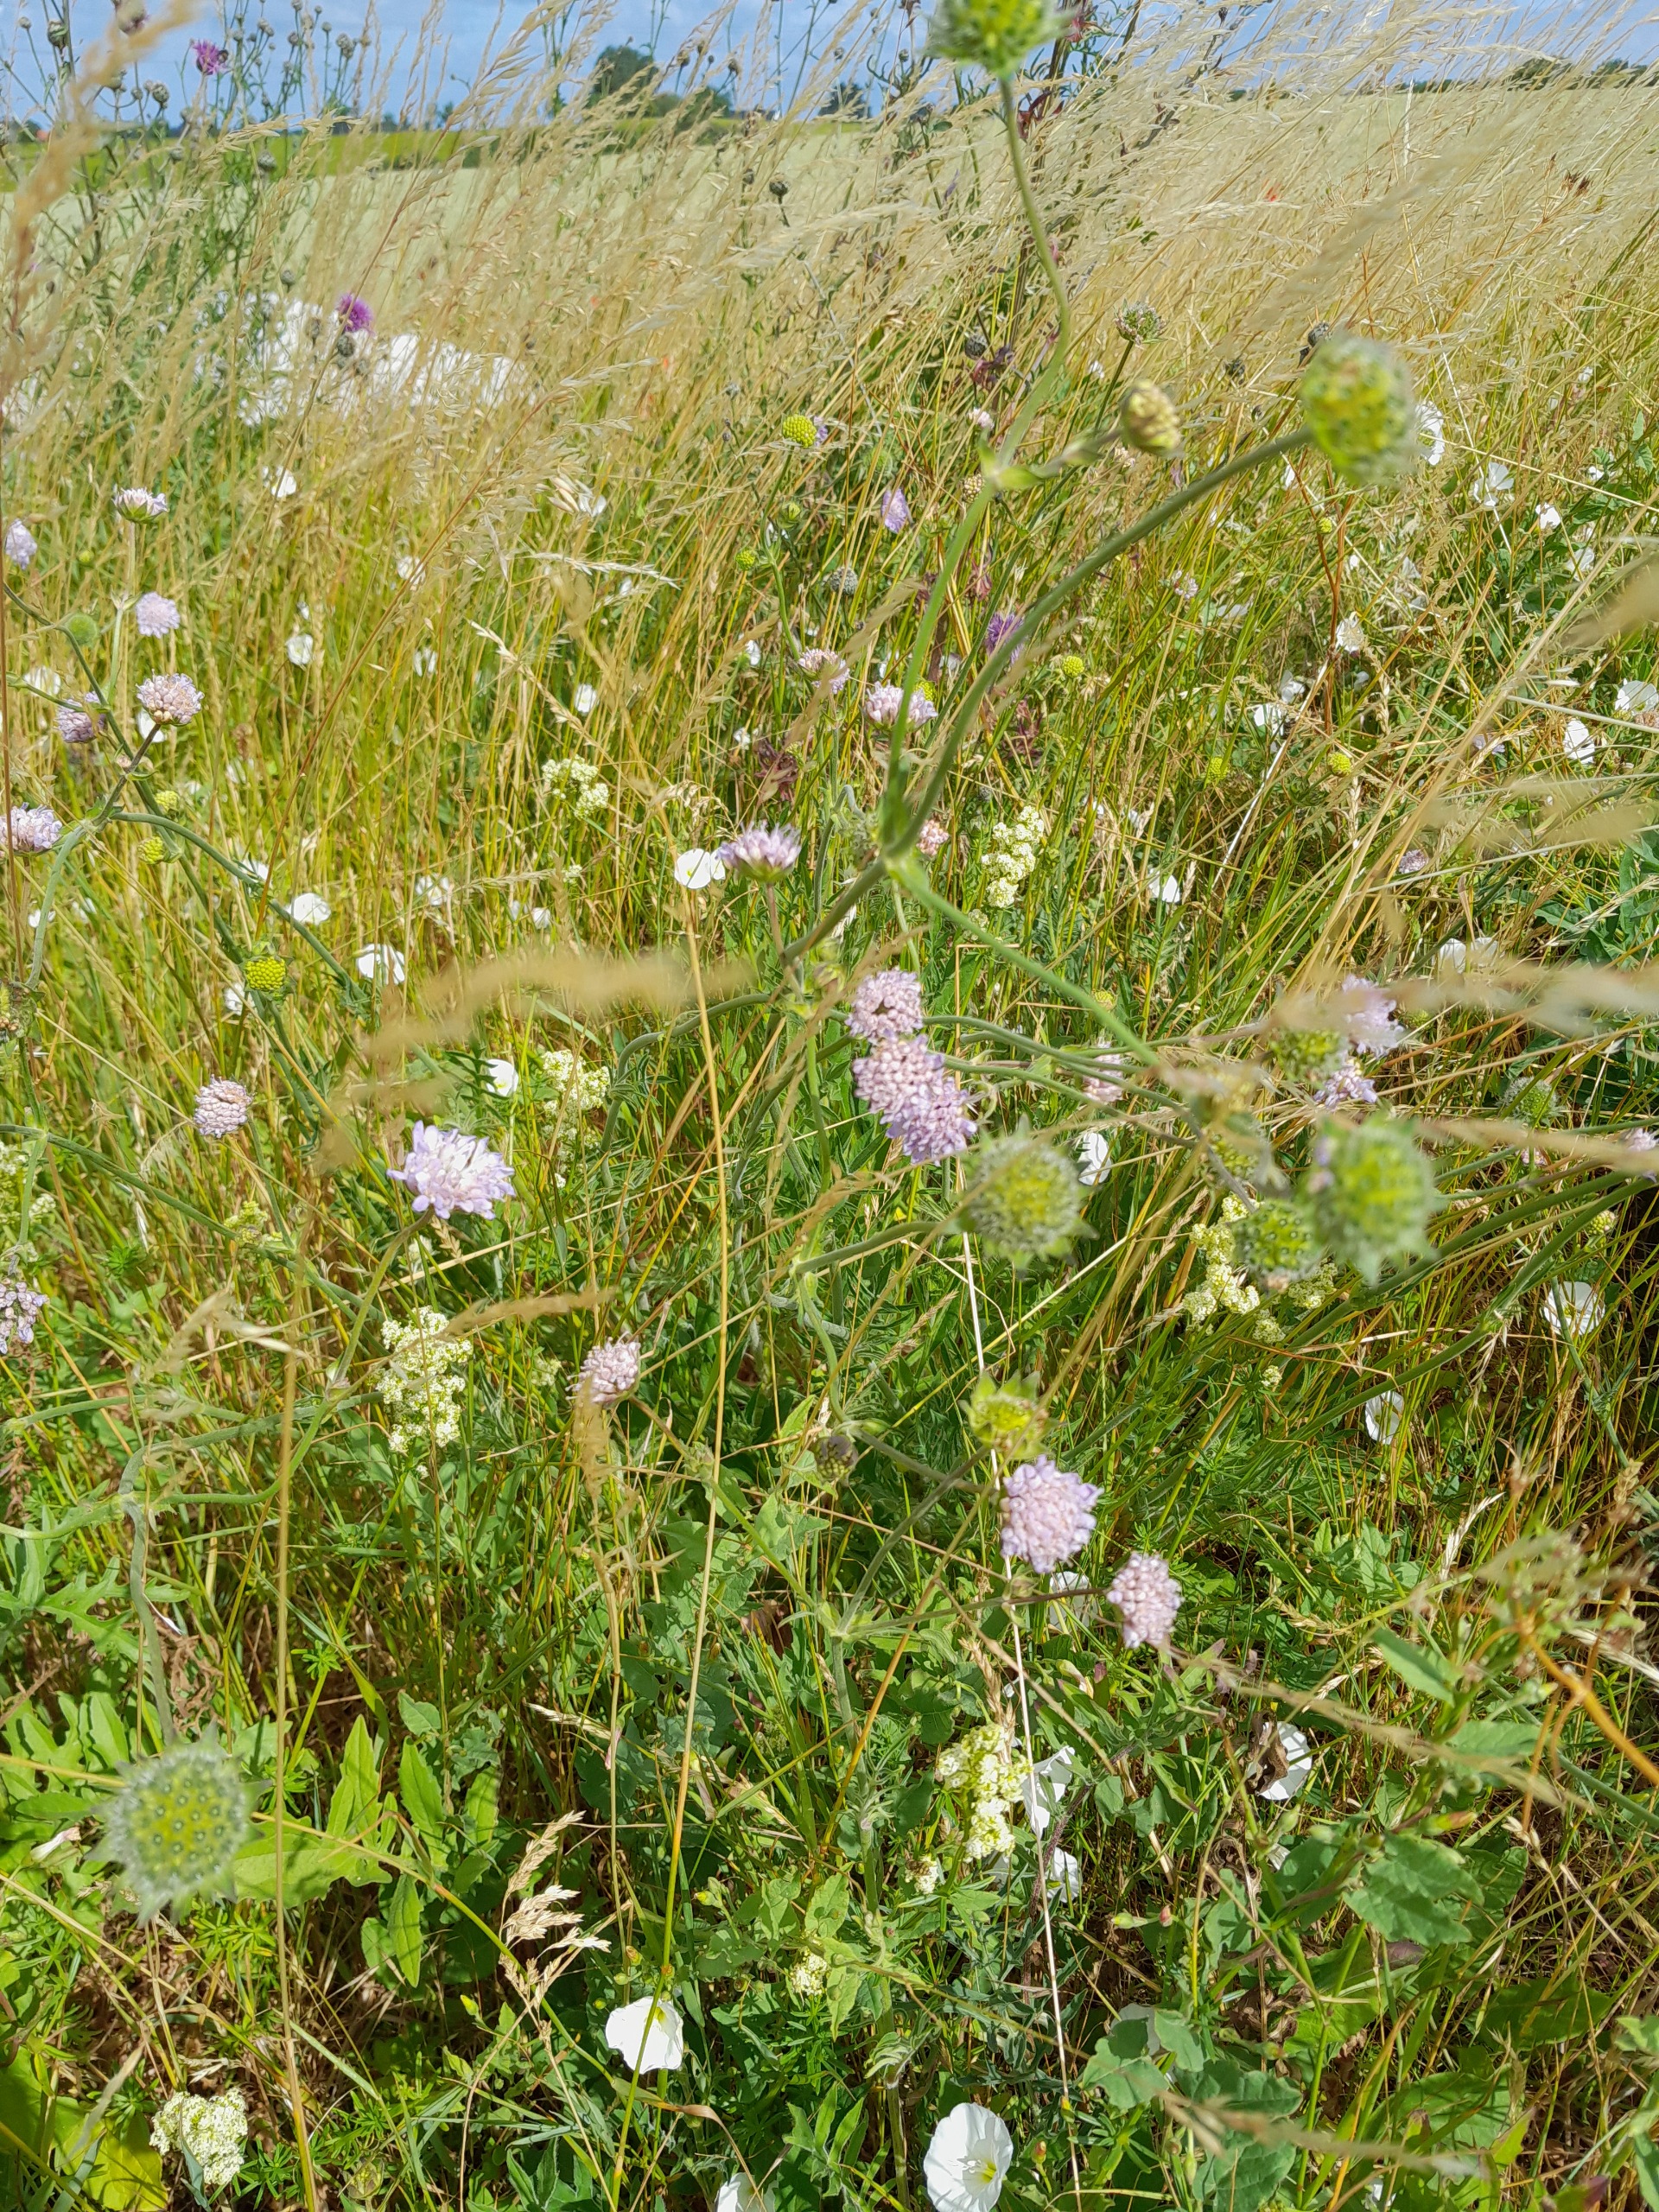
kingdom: Plantae
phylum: Tracheophyta
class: Magnoliopsida
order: Dipsacales
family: Caprifoliaceae
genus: Knautia
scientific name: Knautia arvensis
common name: Blåhat
